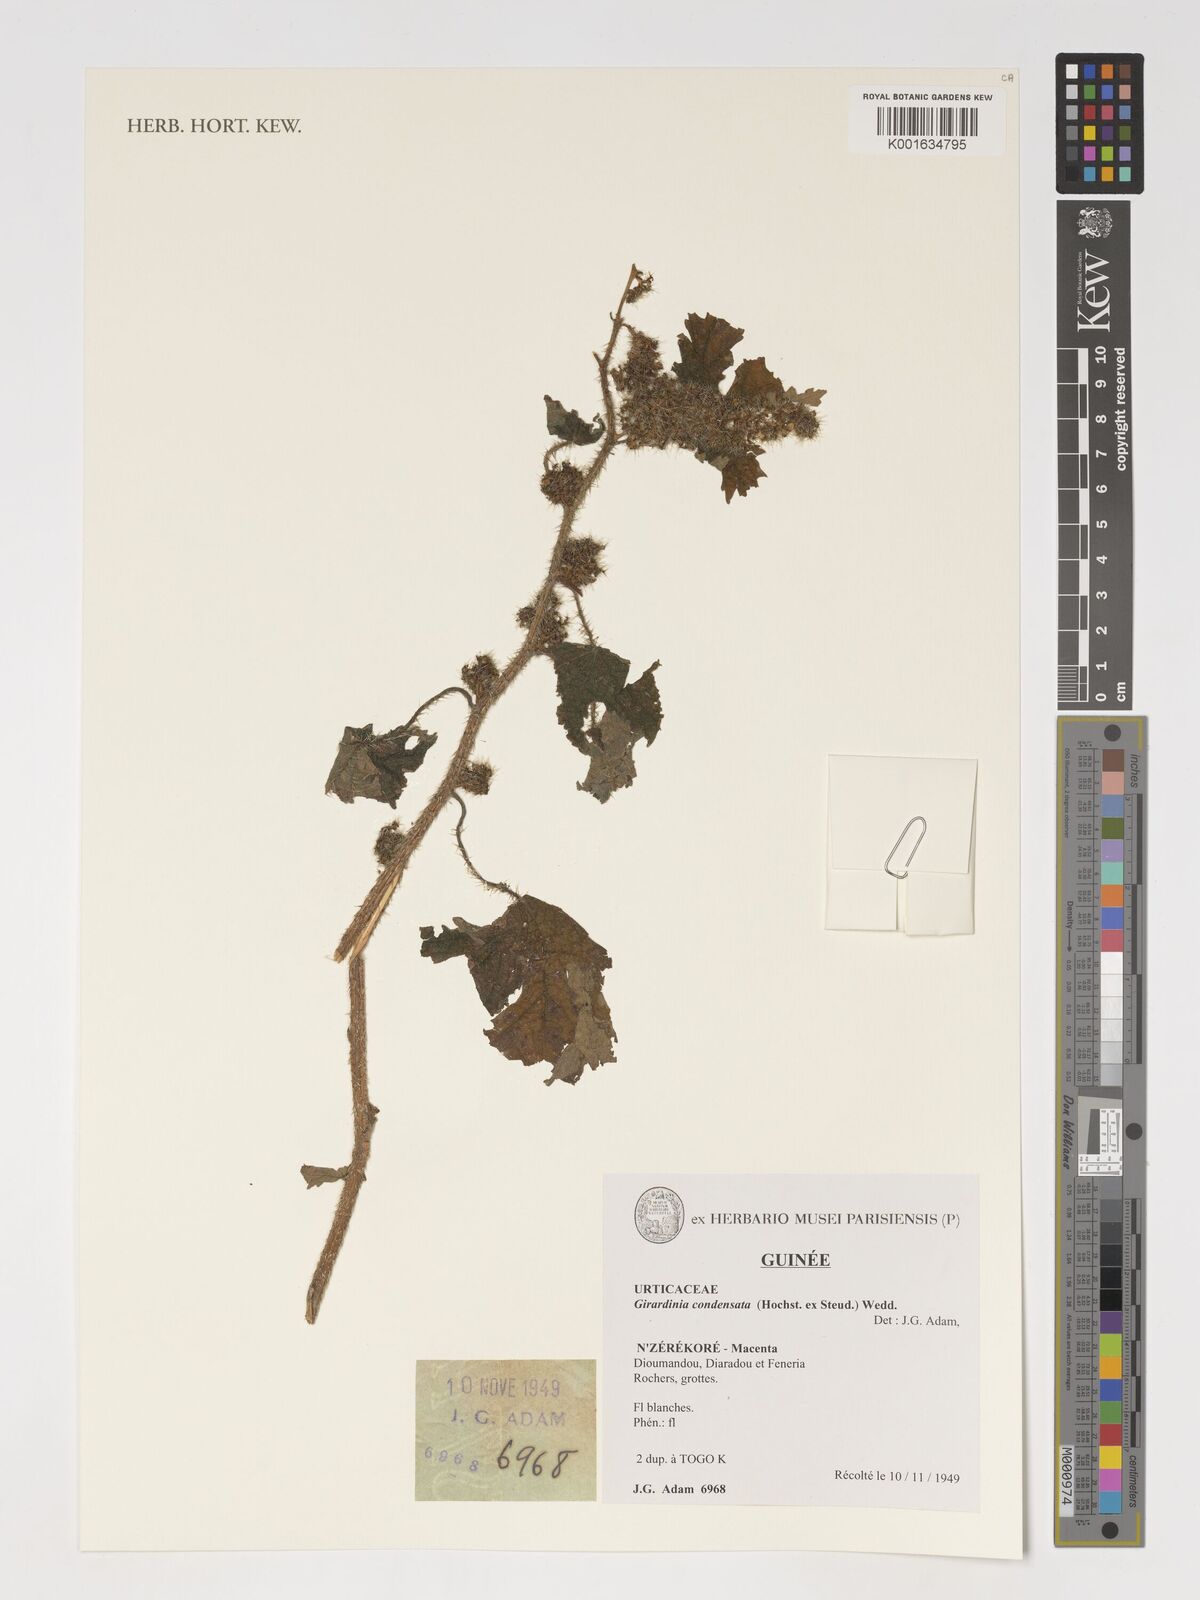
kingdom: Plantae
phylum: Tracheophyta
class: Magnoliopsida
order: Rosales
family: Urticaceae
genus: Girardinia
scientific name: Girardinia diversifolia
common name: Himalayan-nettle
